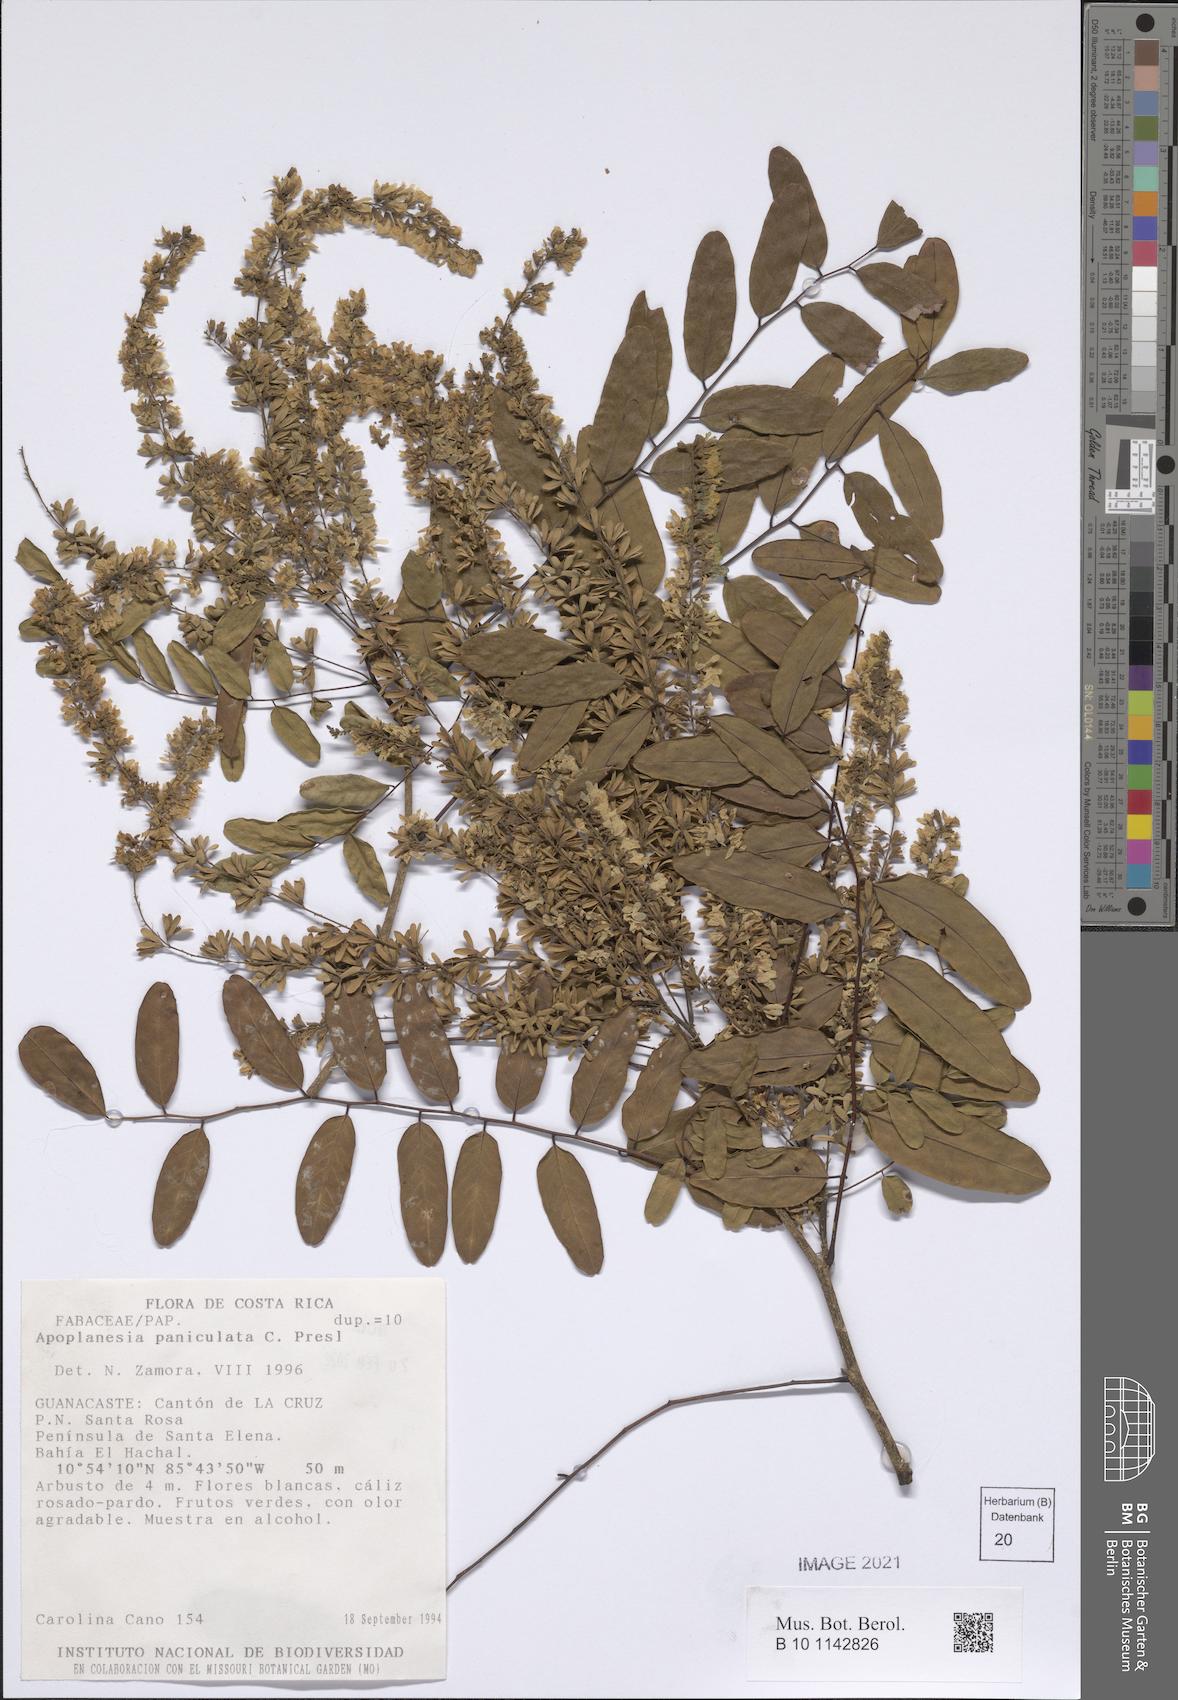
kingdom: Plantae
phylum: Tracheophyta
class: Magnoliopsida
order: Fabales
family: Fabaceae
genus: Apoplanesia
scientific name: Apoplanesia paniculata
